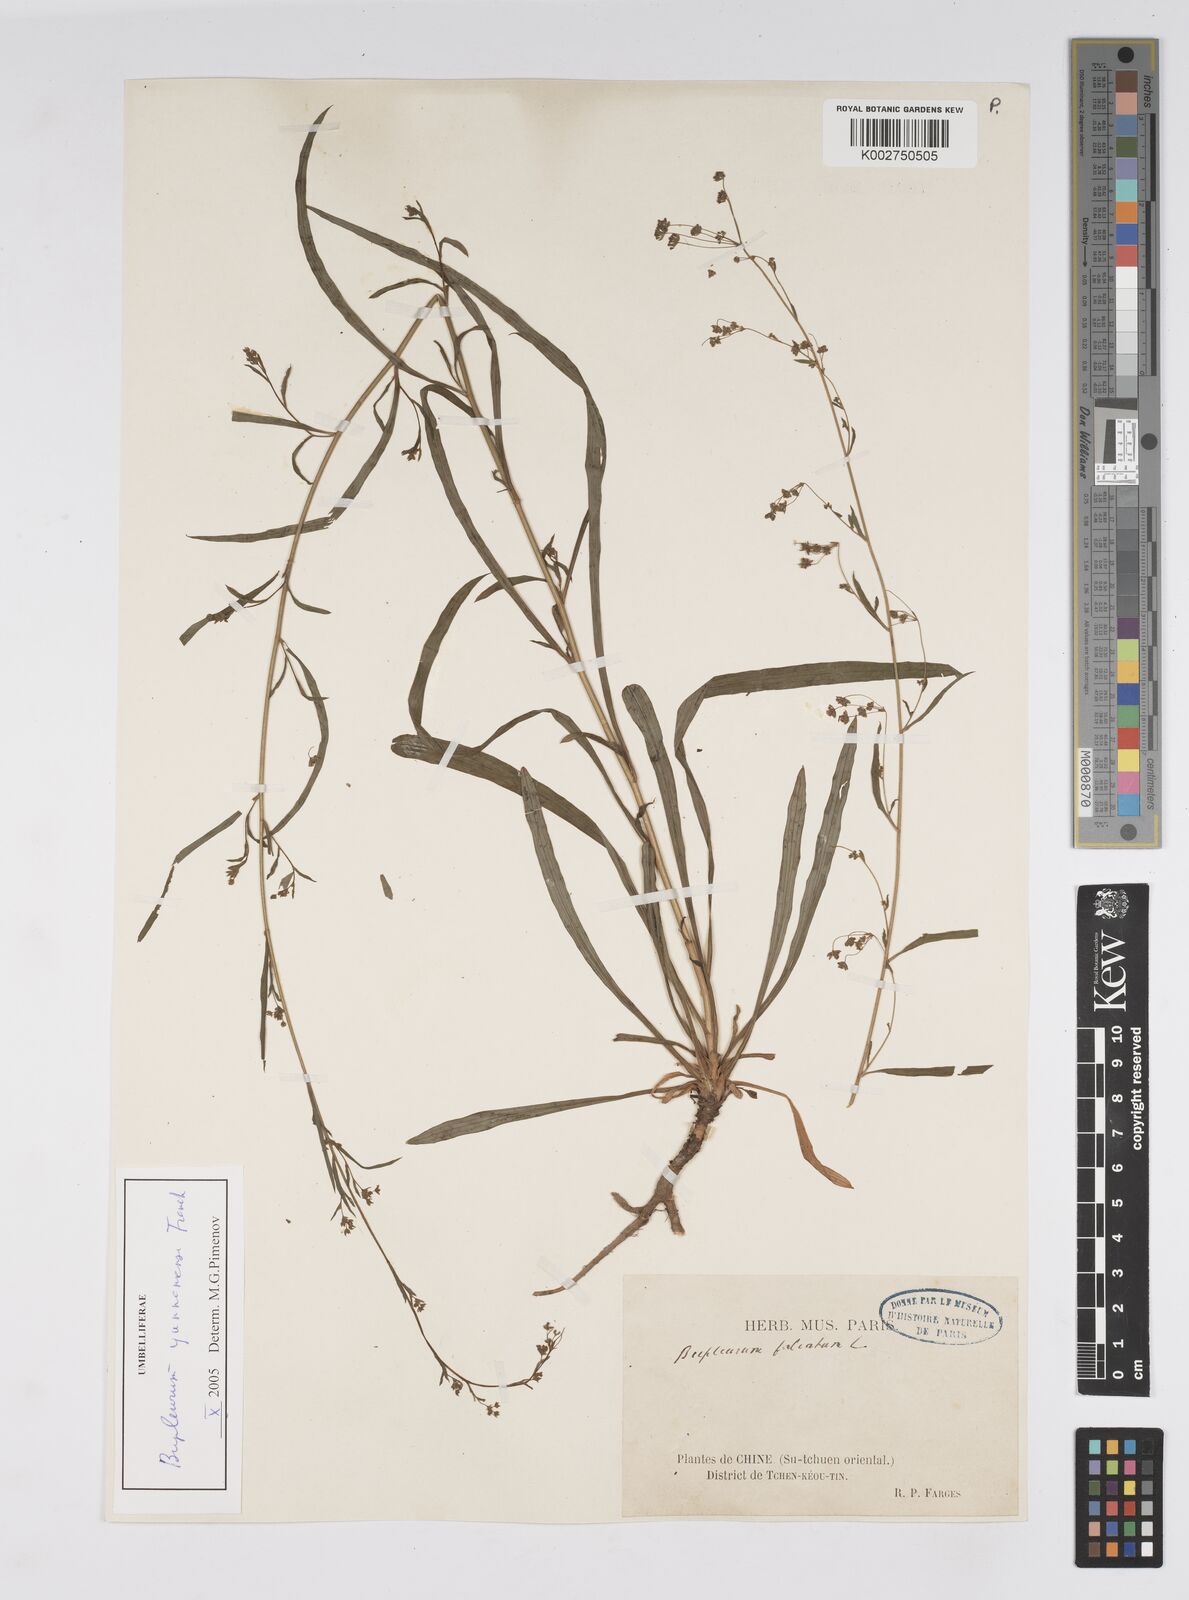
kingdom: Plantae
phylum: Tracheophyta
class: Magnoliopsida
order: Apiales
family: Apiaceae
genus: Bupleurum
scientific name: Bupleurum krylovianum
